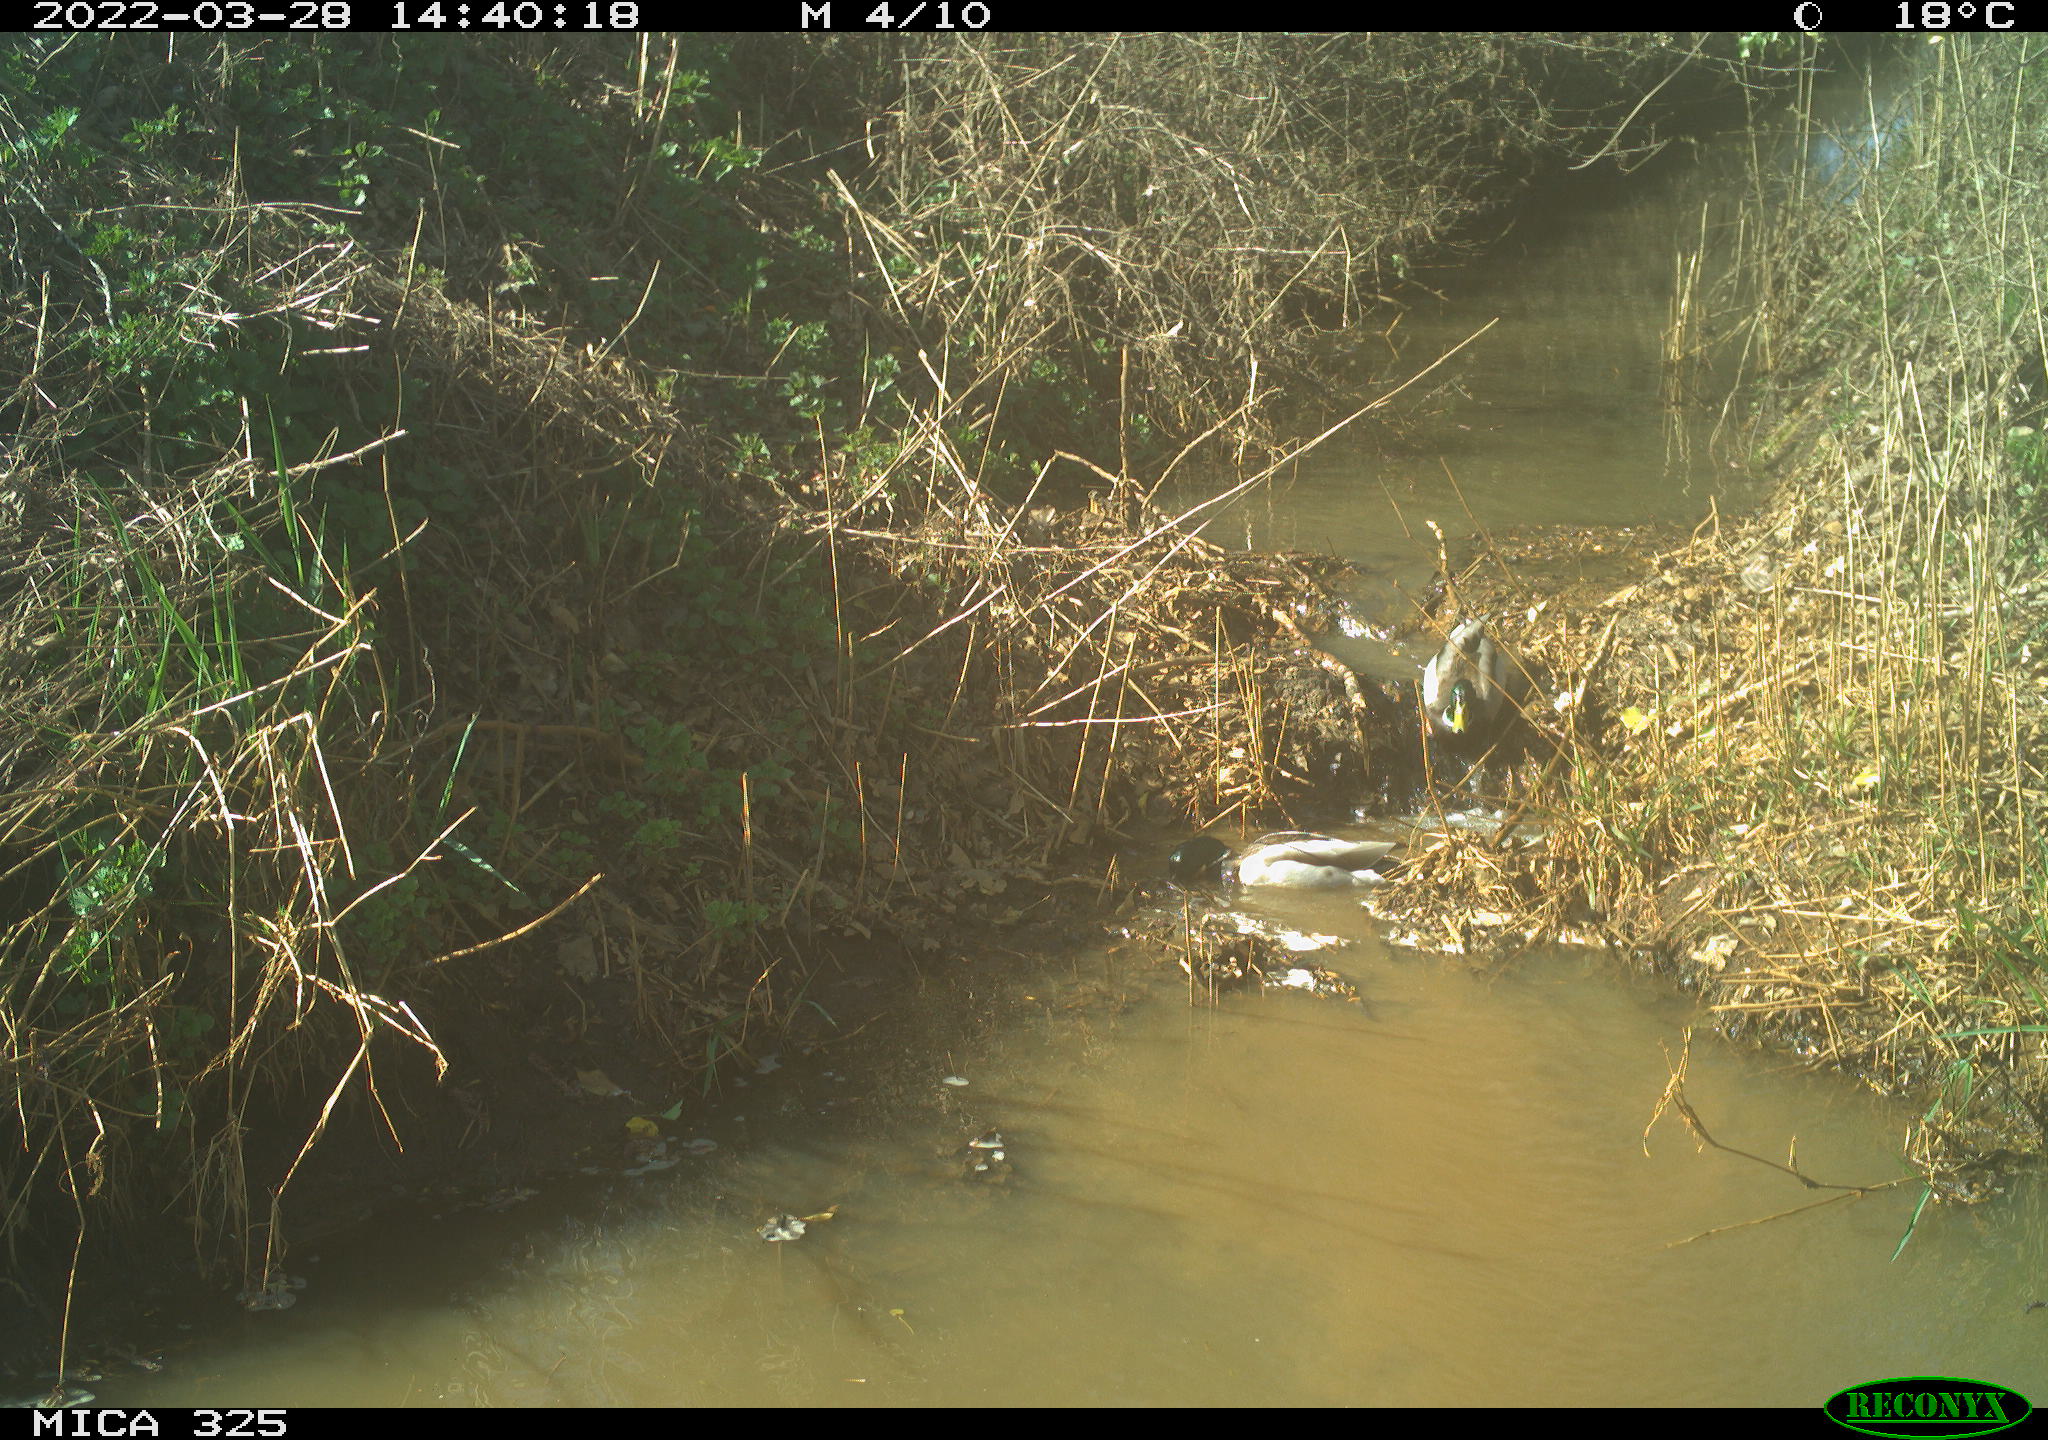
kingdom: Animalia
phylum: Chordata
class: Aves
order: Anseriformes
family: Anatidae
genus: Anas
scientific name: Anas platyrhynchos
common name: Mallard
